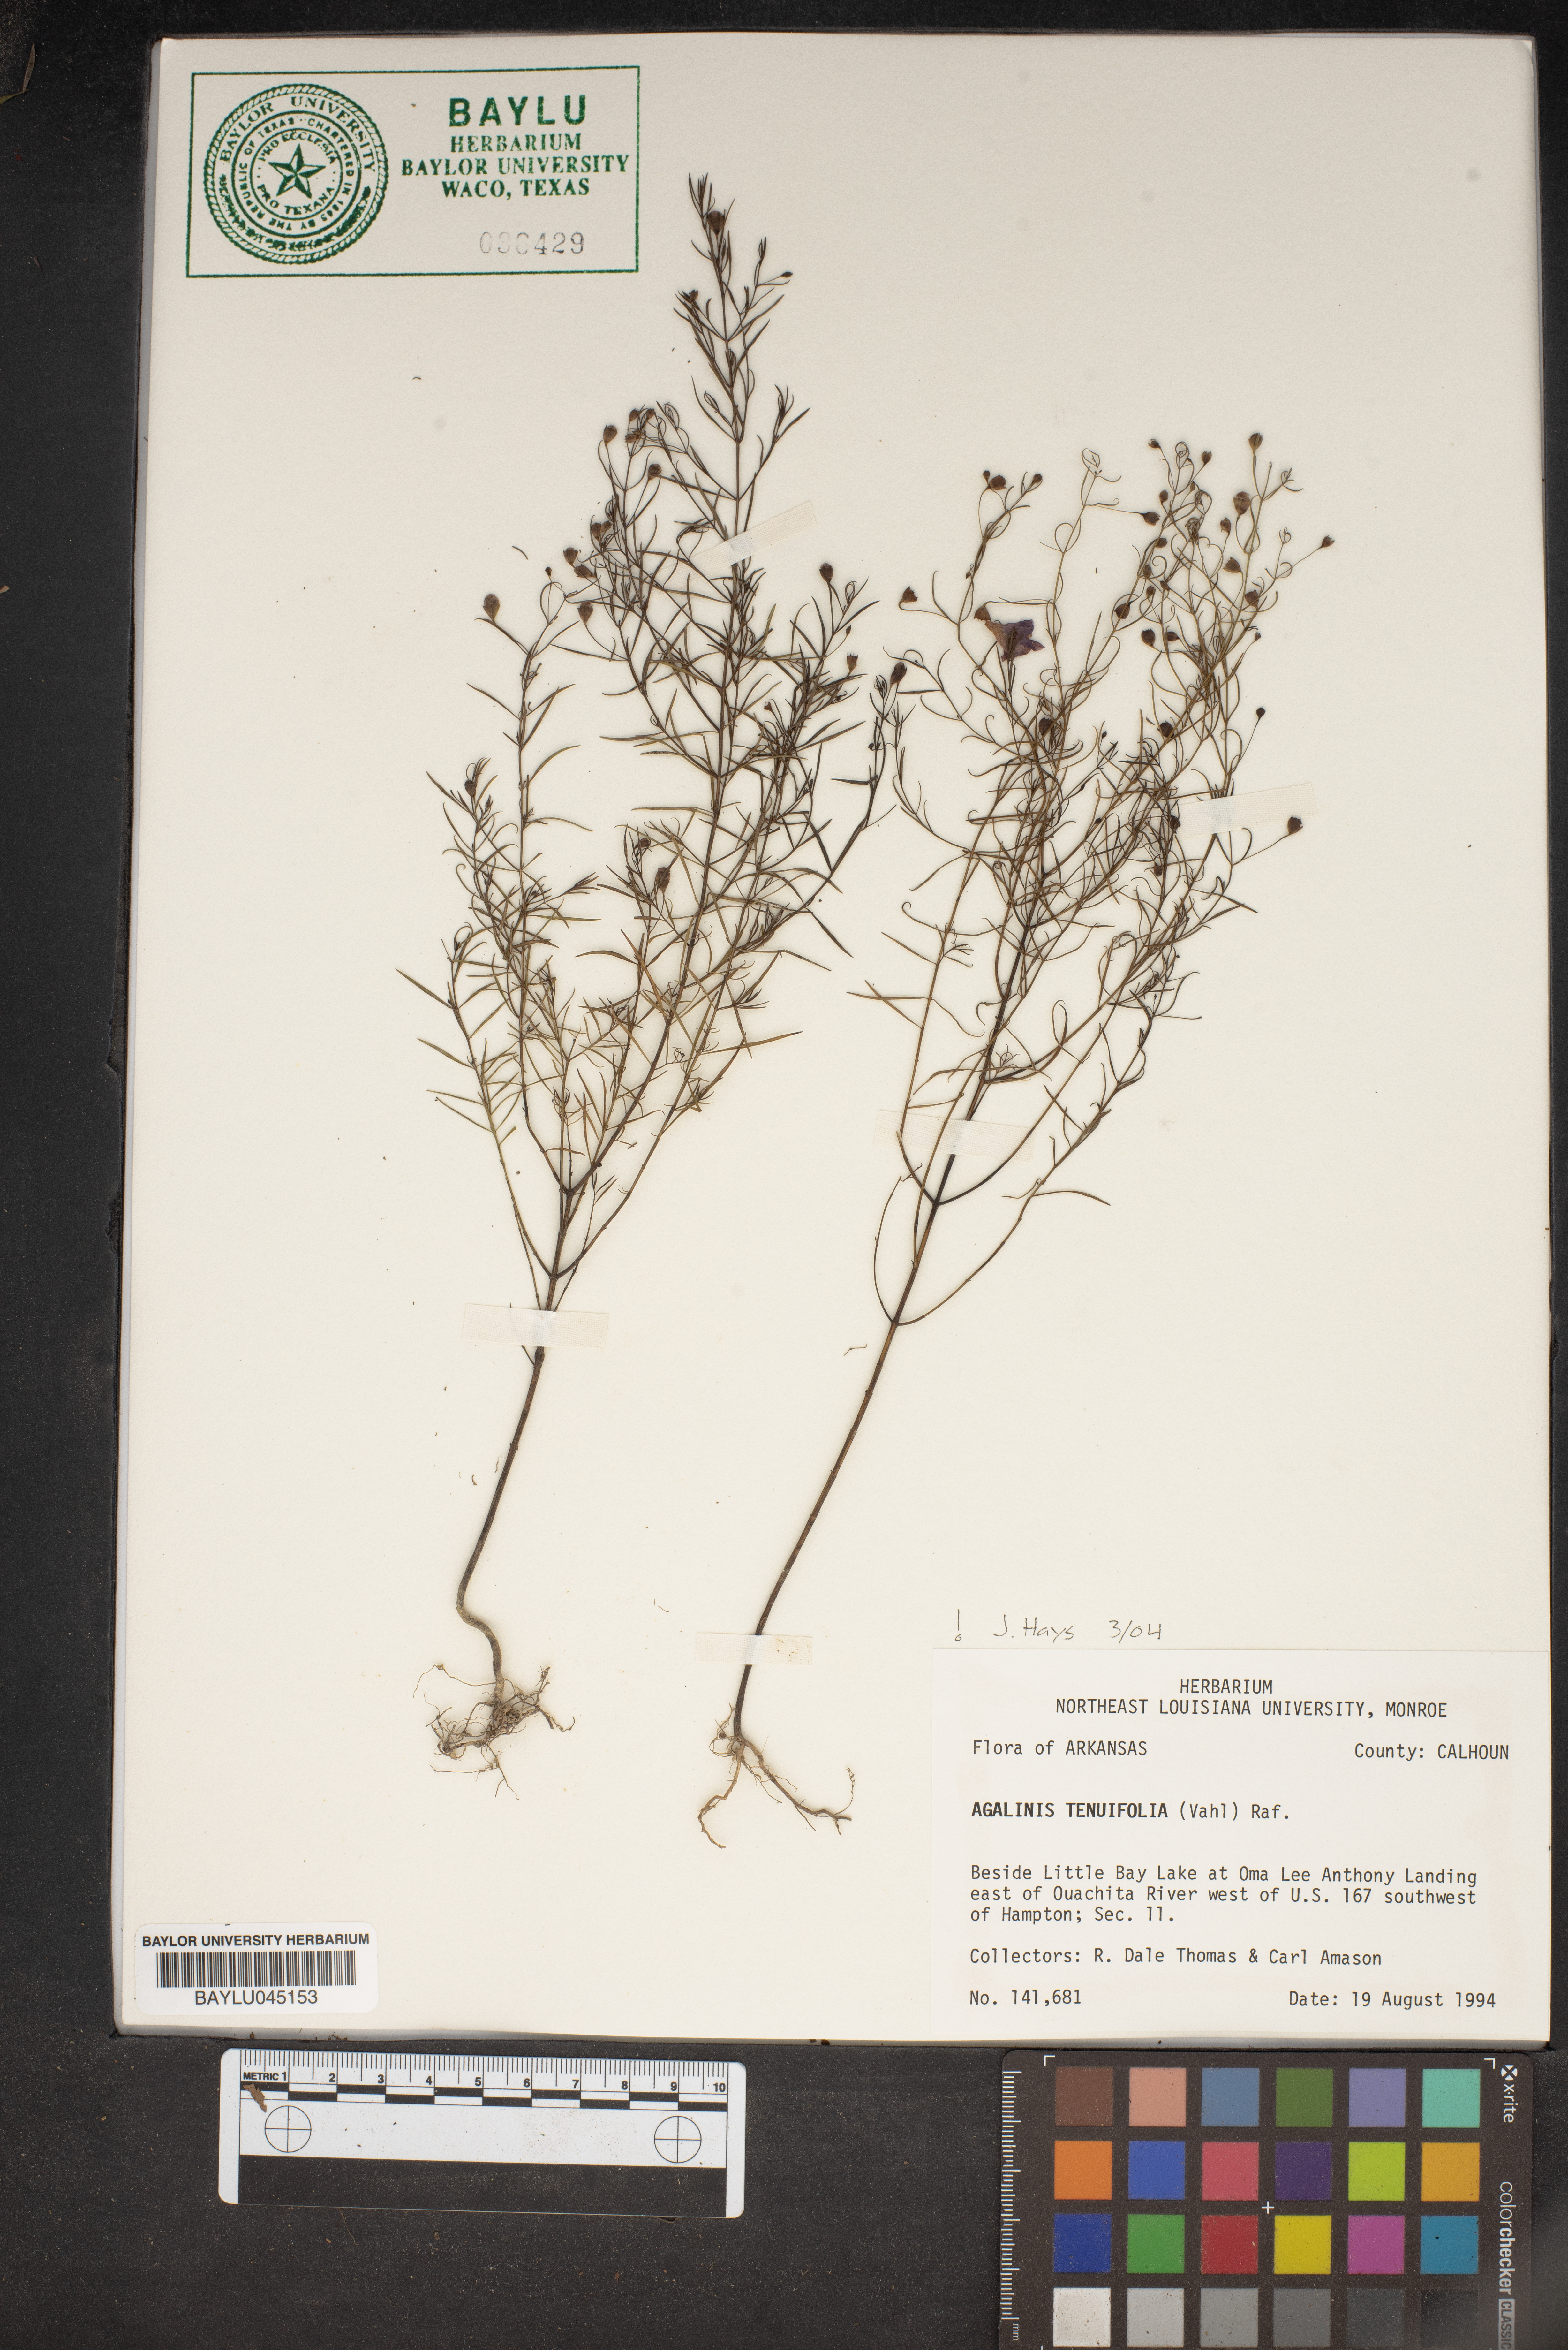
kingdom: Plantae
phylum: Tracheophyta
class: Magnoliopsida
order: Lamiales
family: Orobanchaceae
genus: Agalinis
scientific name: Agalinis tenuifolia
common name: Slender agalinis
